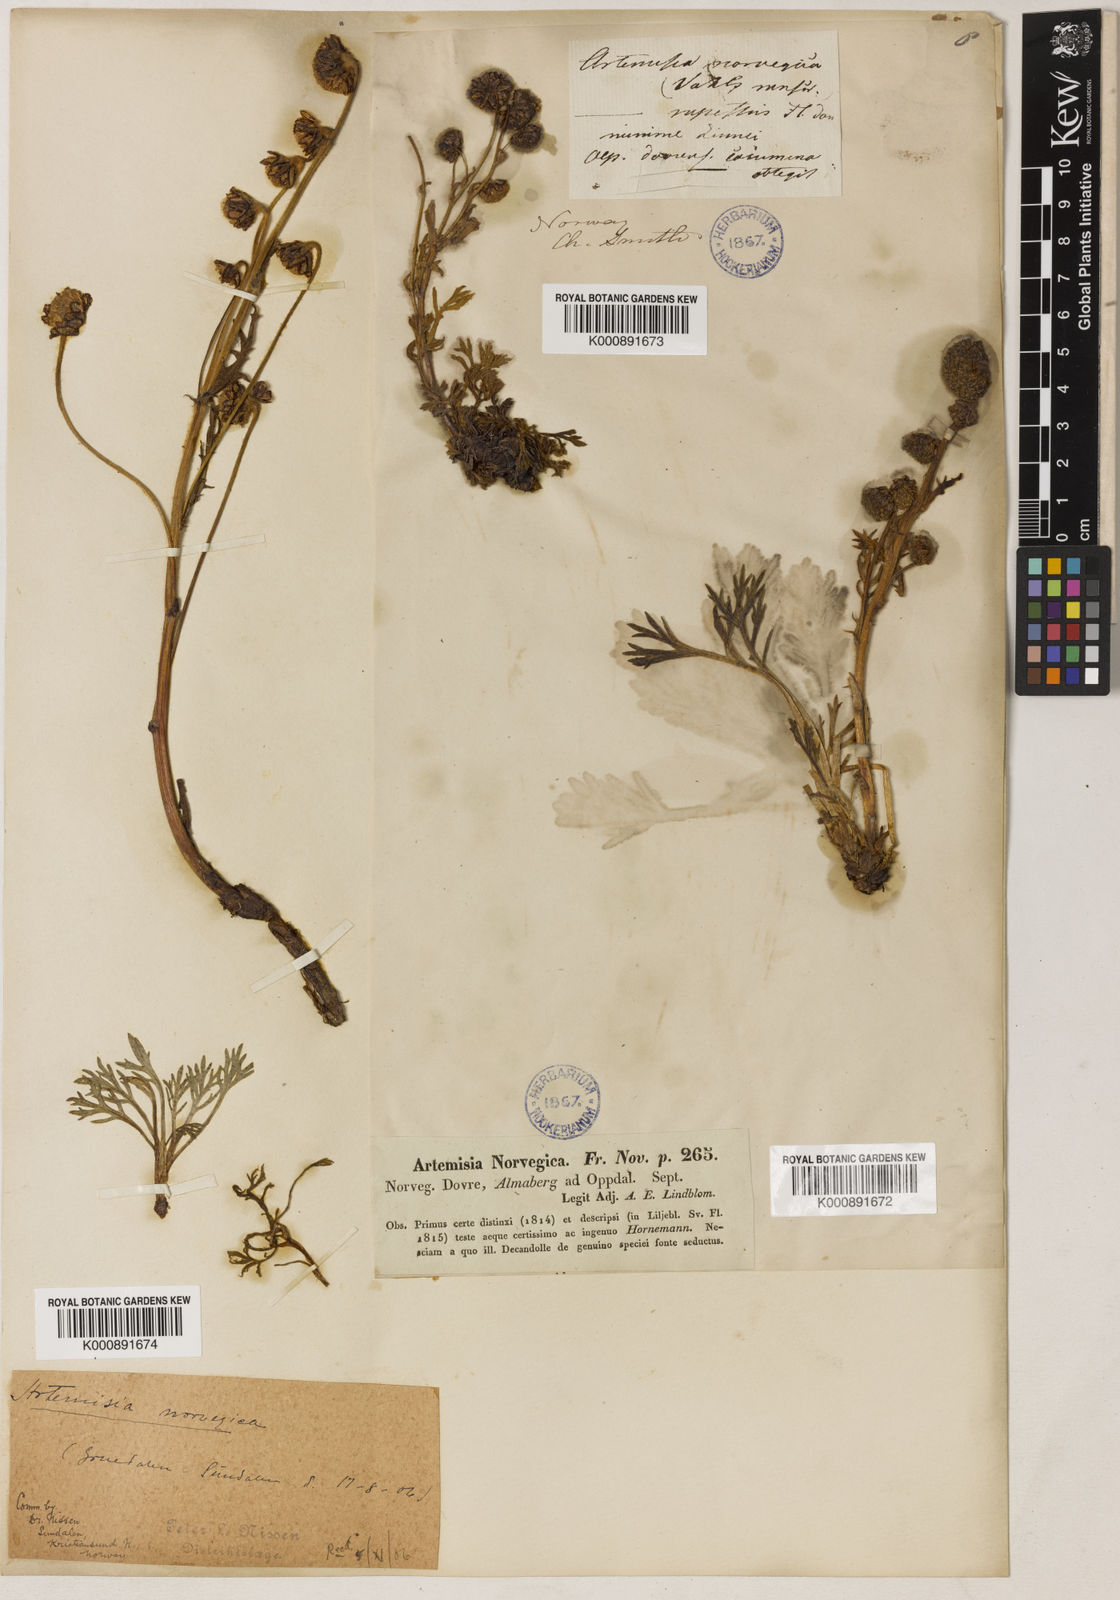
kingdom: Plantae
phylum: Tracheophyta
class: Magnoliopsida
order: Asterales
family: Asteraceae
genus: Artemisia
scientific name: Artemisia norvegica
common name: Norwegian mugwort
